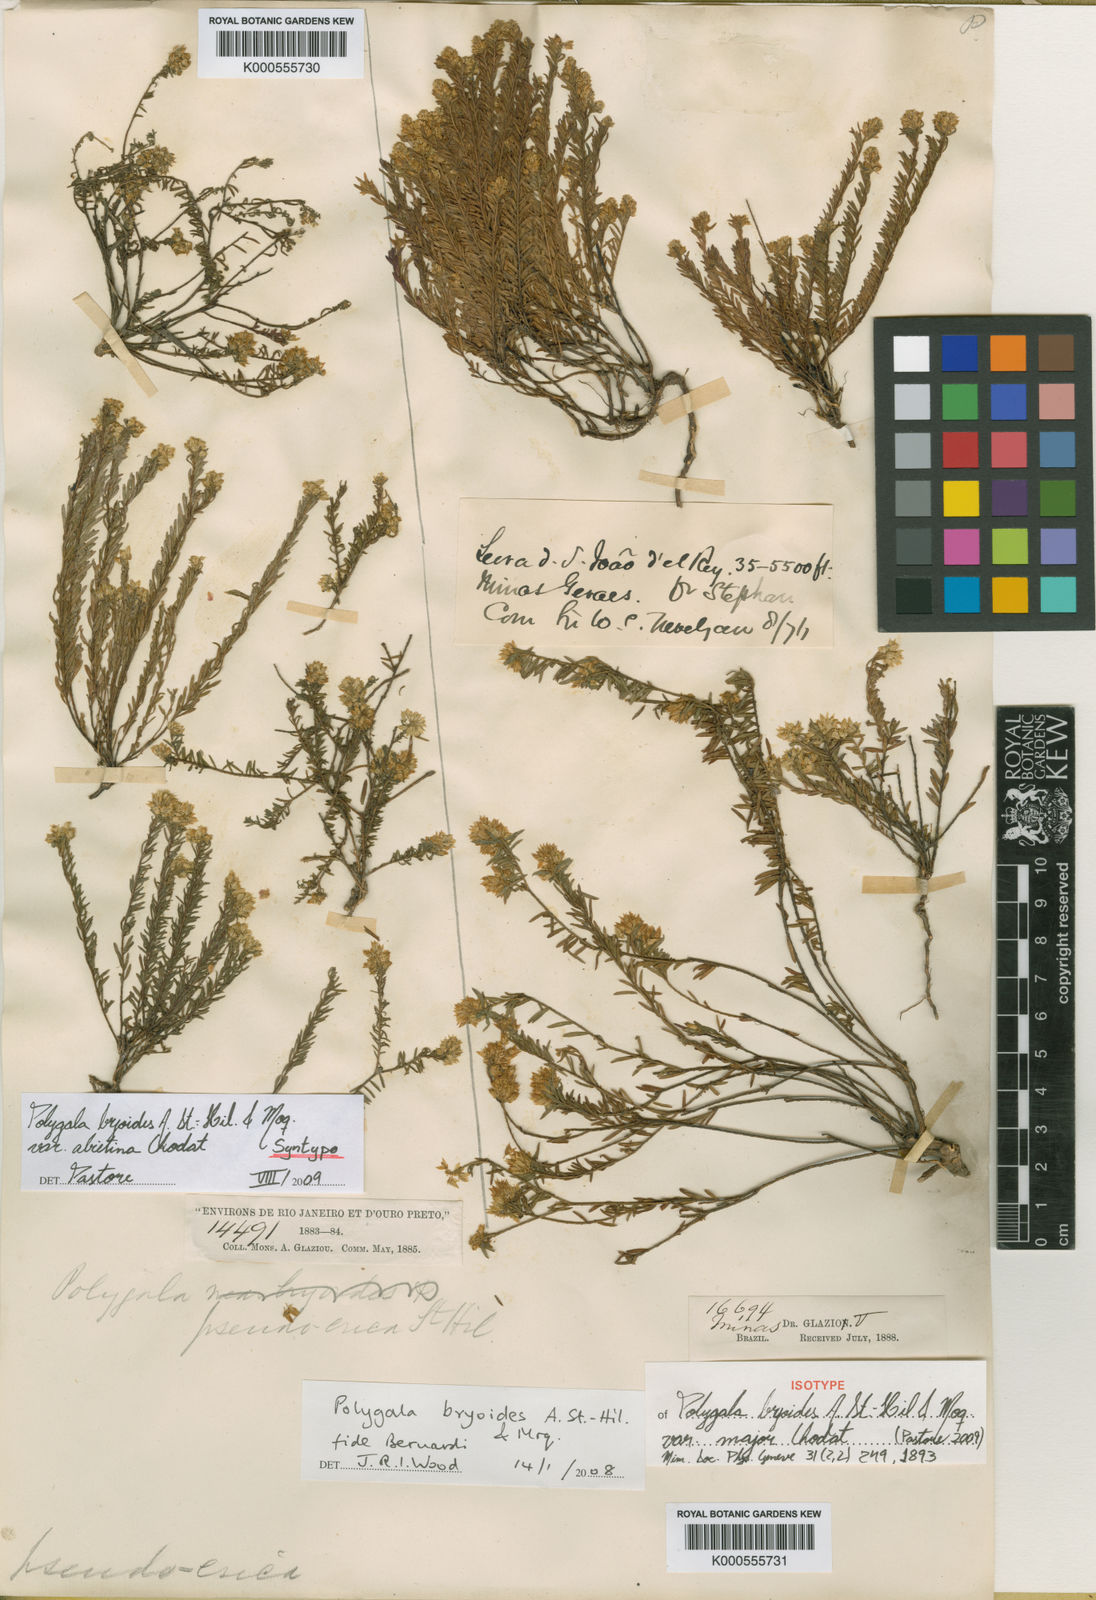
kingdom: Plantae
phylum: Tracheophyta
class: Magnoliopsida
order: Fabales
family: Polygalaceae
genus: Polygala
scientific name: Polygala bryoides
